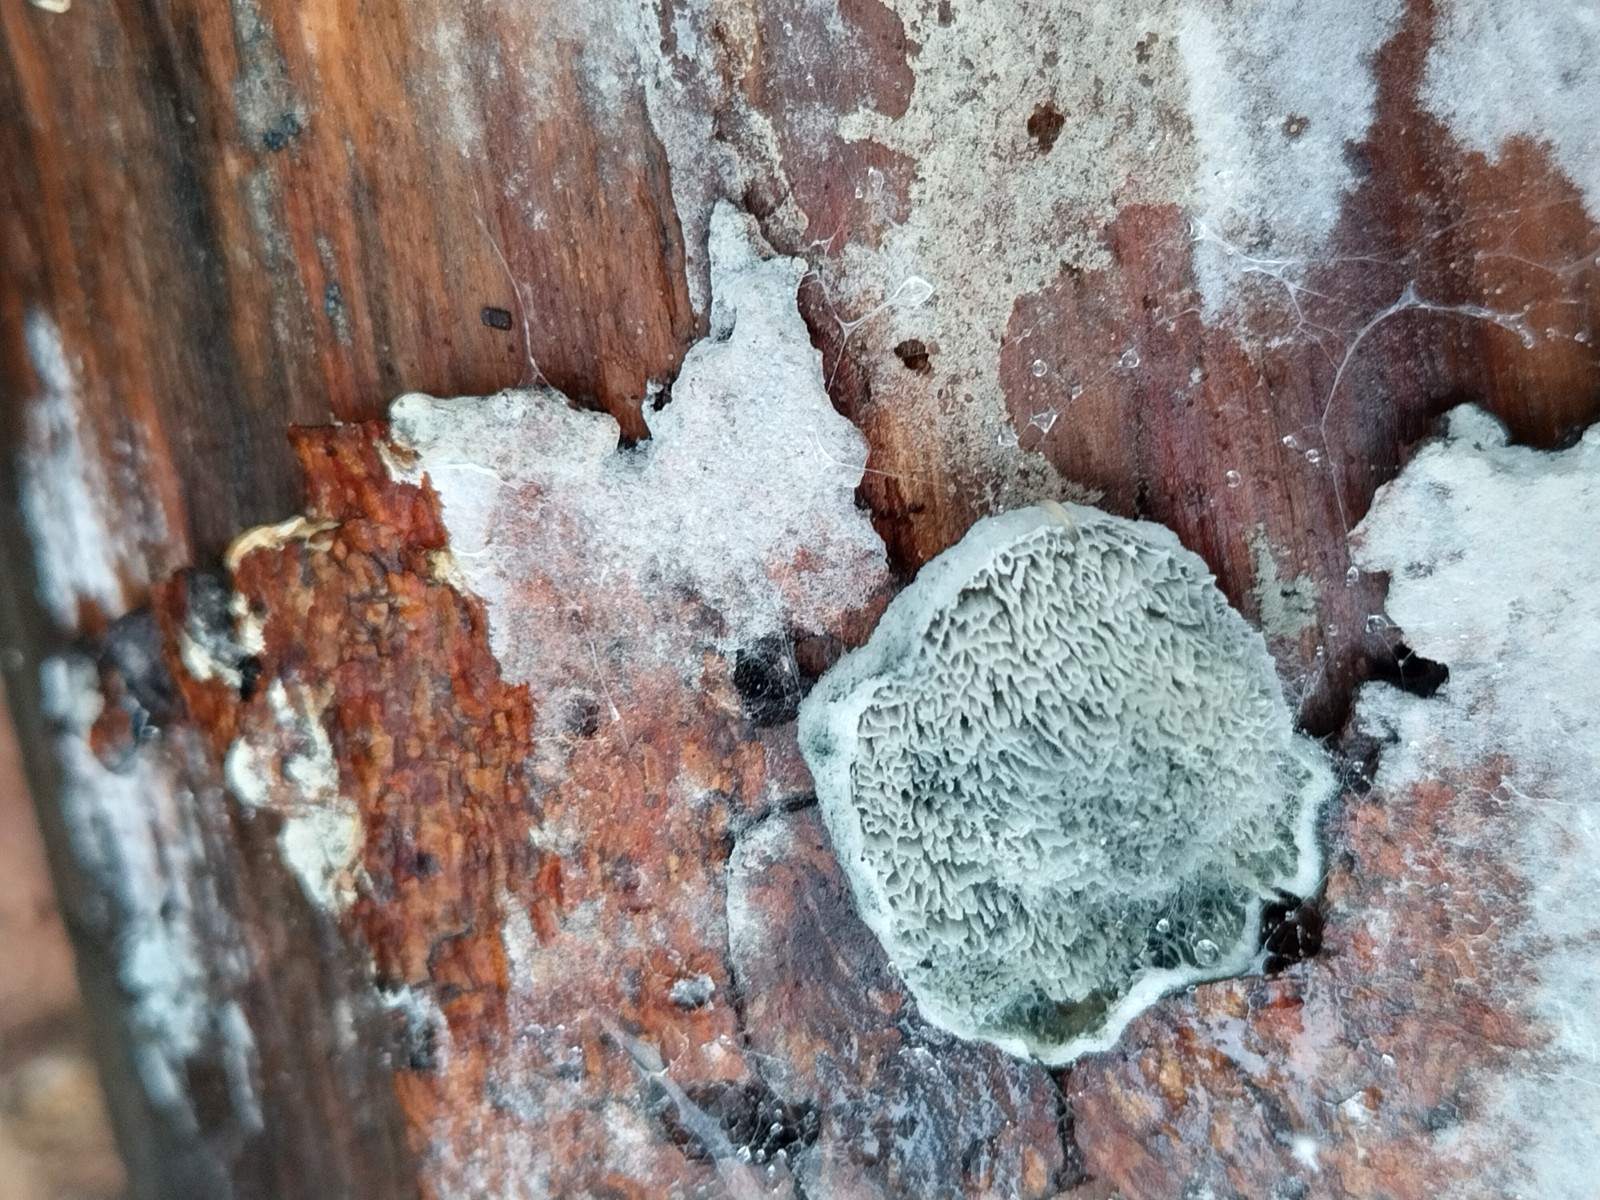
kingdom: Fungi
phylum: Basidiomycota
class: Agaricomycetes
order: Polyporales
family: Polyporaceae
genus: Cyanosporus
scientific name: Cyanosporus caesius
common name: blålig kødporesvamp
